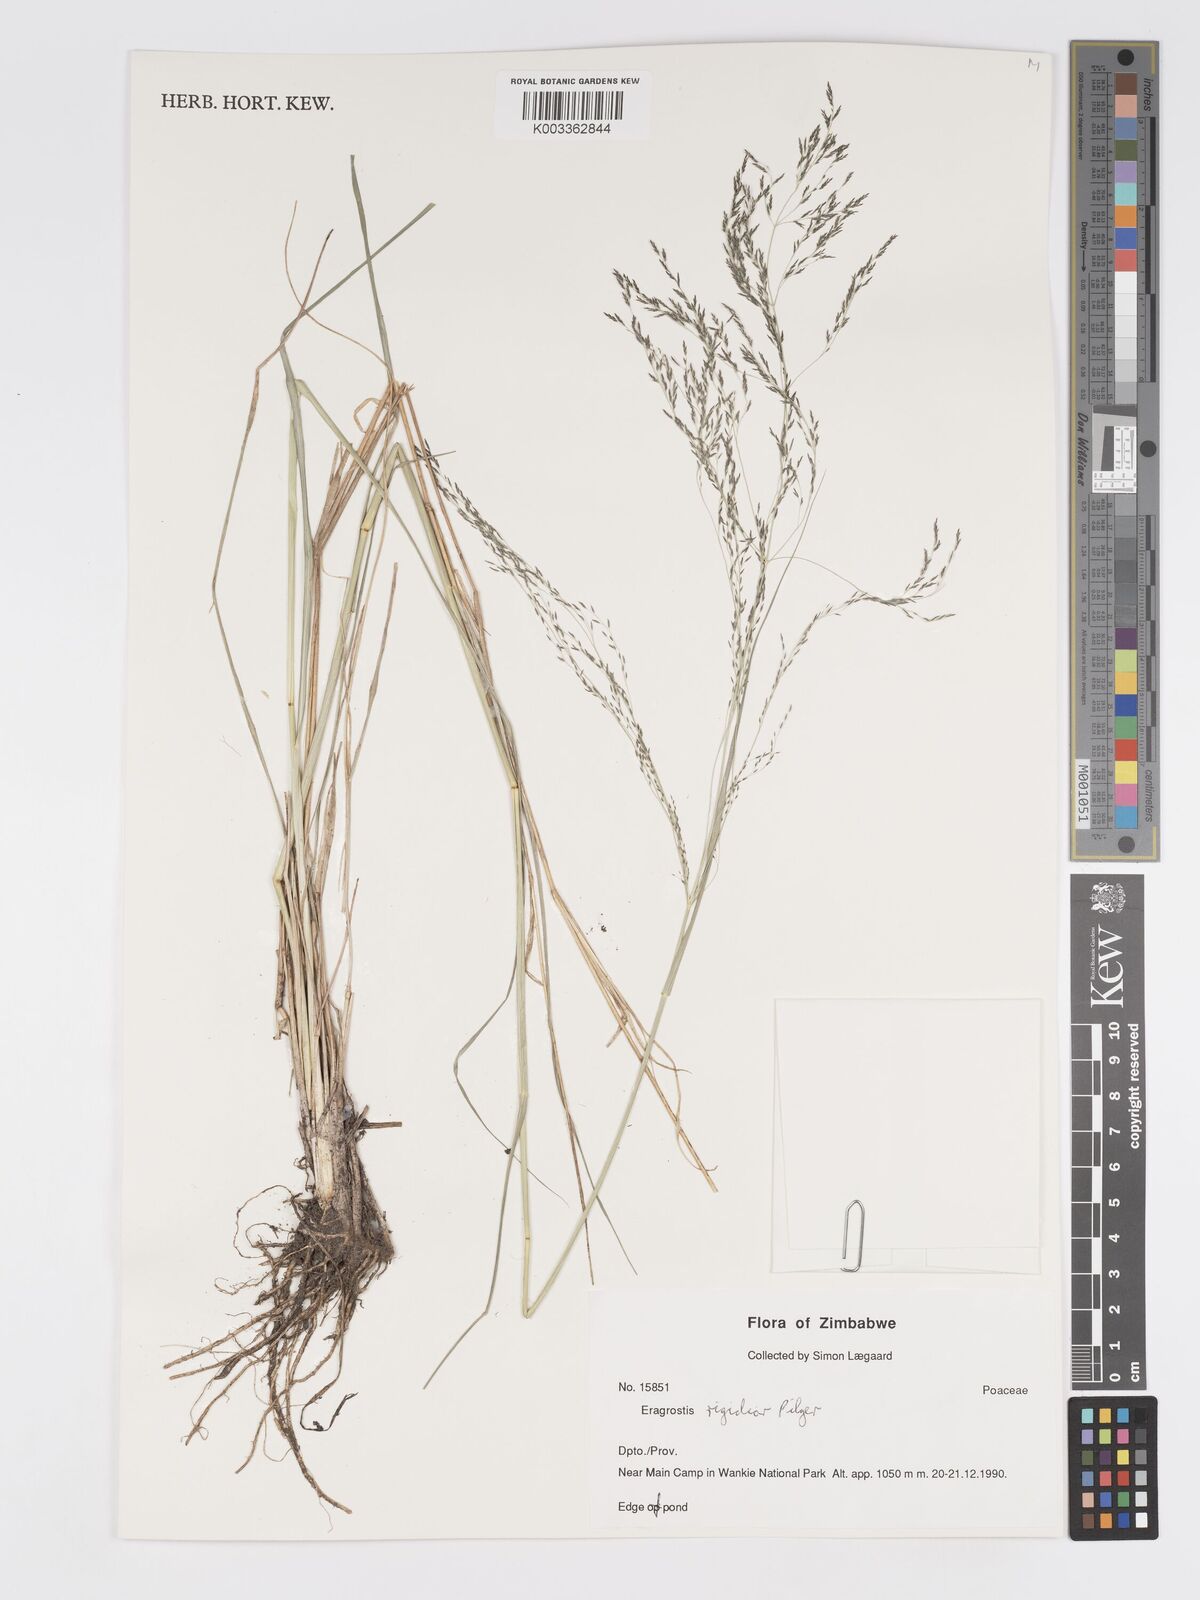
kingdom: Plantae
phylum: Tracheophyta
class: Liliopsida
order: Poales
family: Poaceae
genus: Eragrostis
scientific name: Eragrostis cylindriflora
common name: Cylinderflower lovegrass
